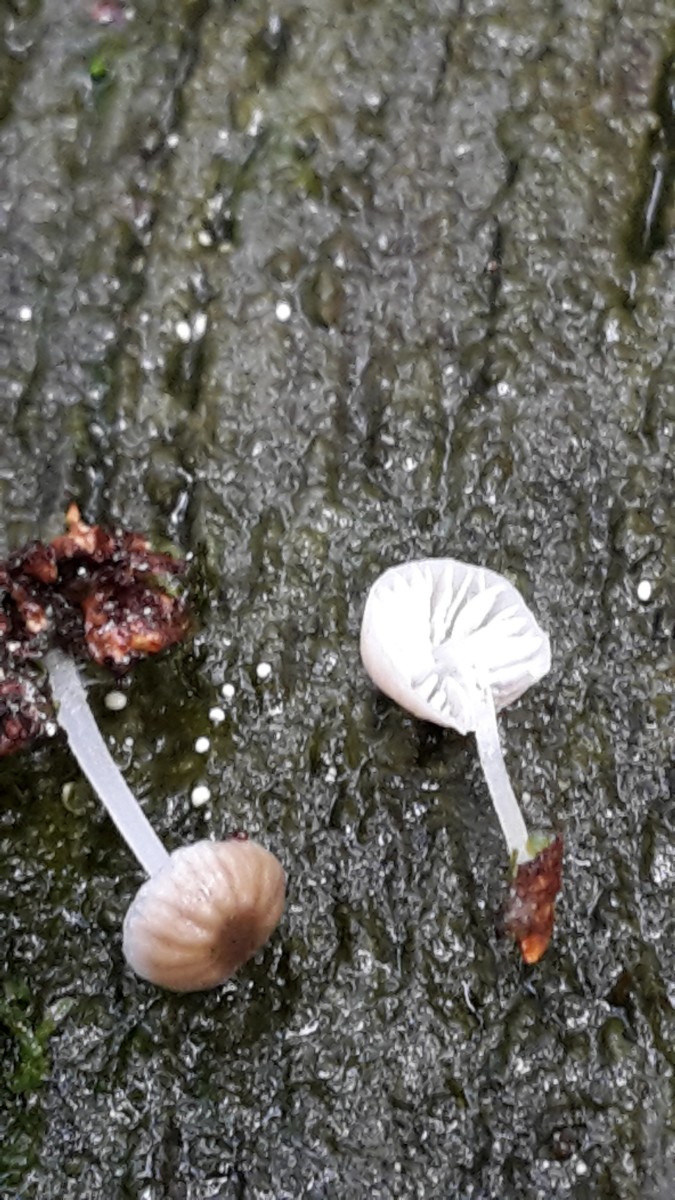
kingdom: Fungi
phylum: Basidiomycota
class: Agaricomycetes
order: Agaricales
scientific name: Agaricales
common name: champignonordenen
